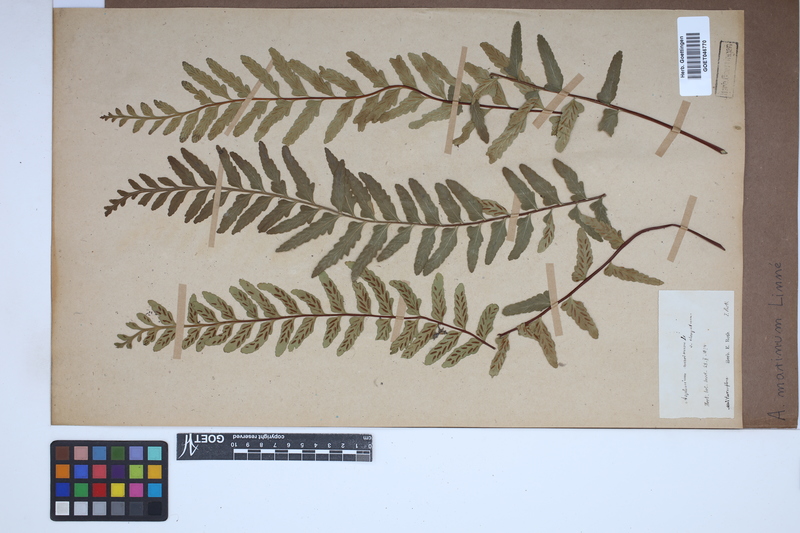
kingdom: Plantae
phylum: Tracheophyta
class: Polypodiopsida
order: Polypodiales
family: Aspleniaceae
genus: Asplenium
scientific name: Asplenium marinum
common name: Sea spleenwort
